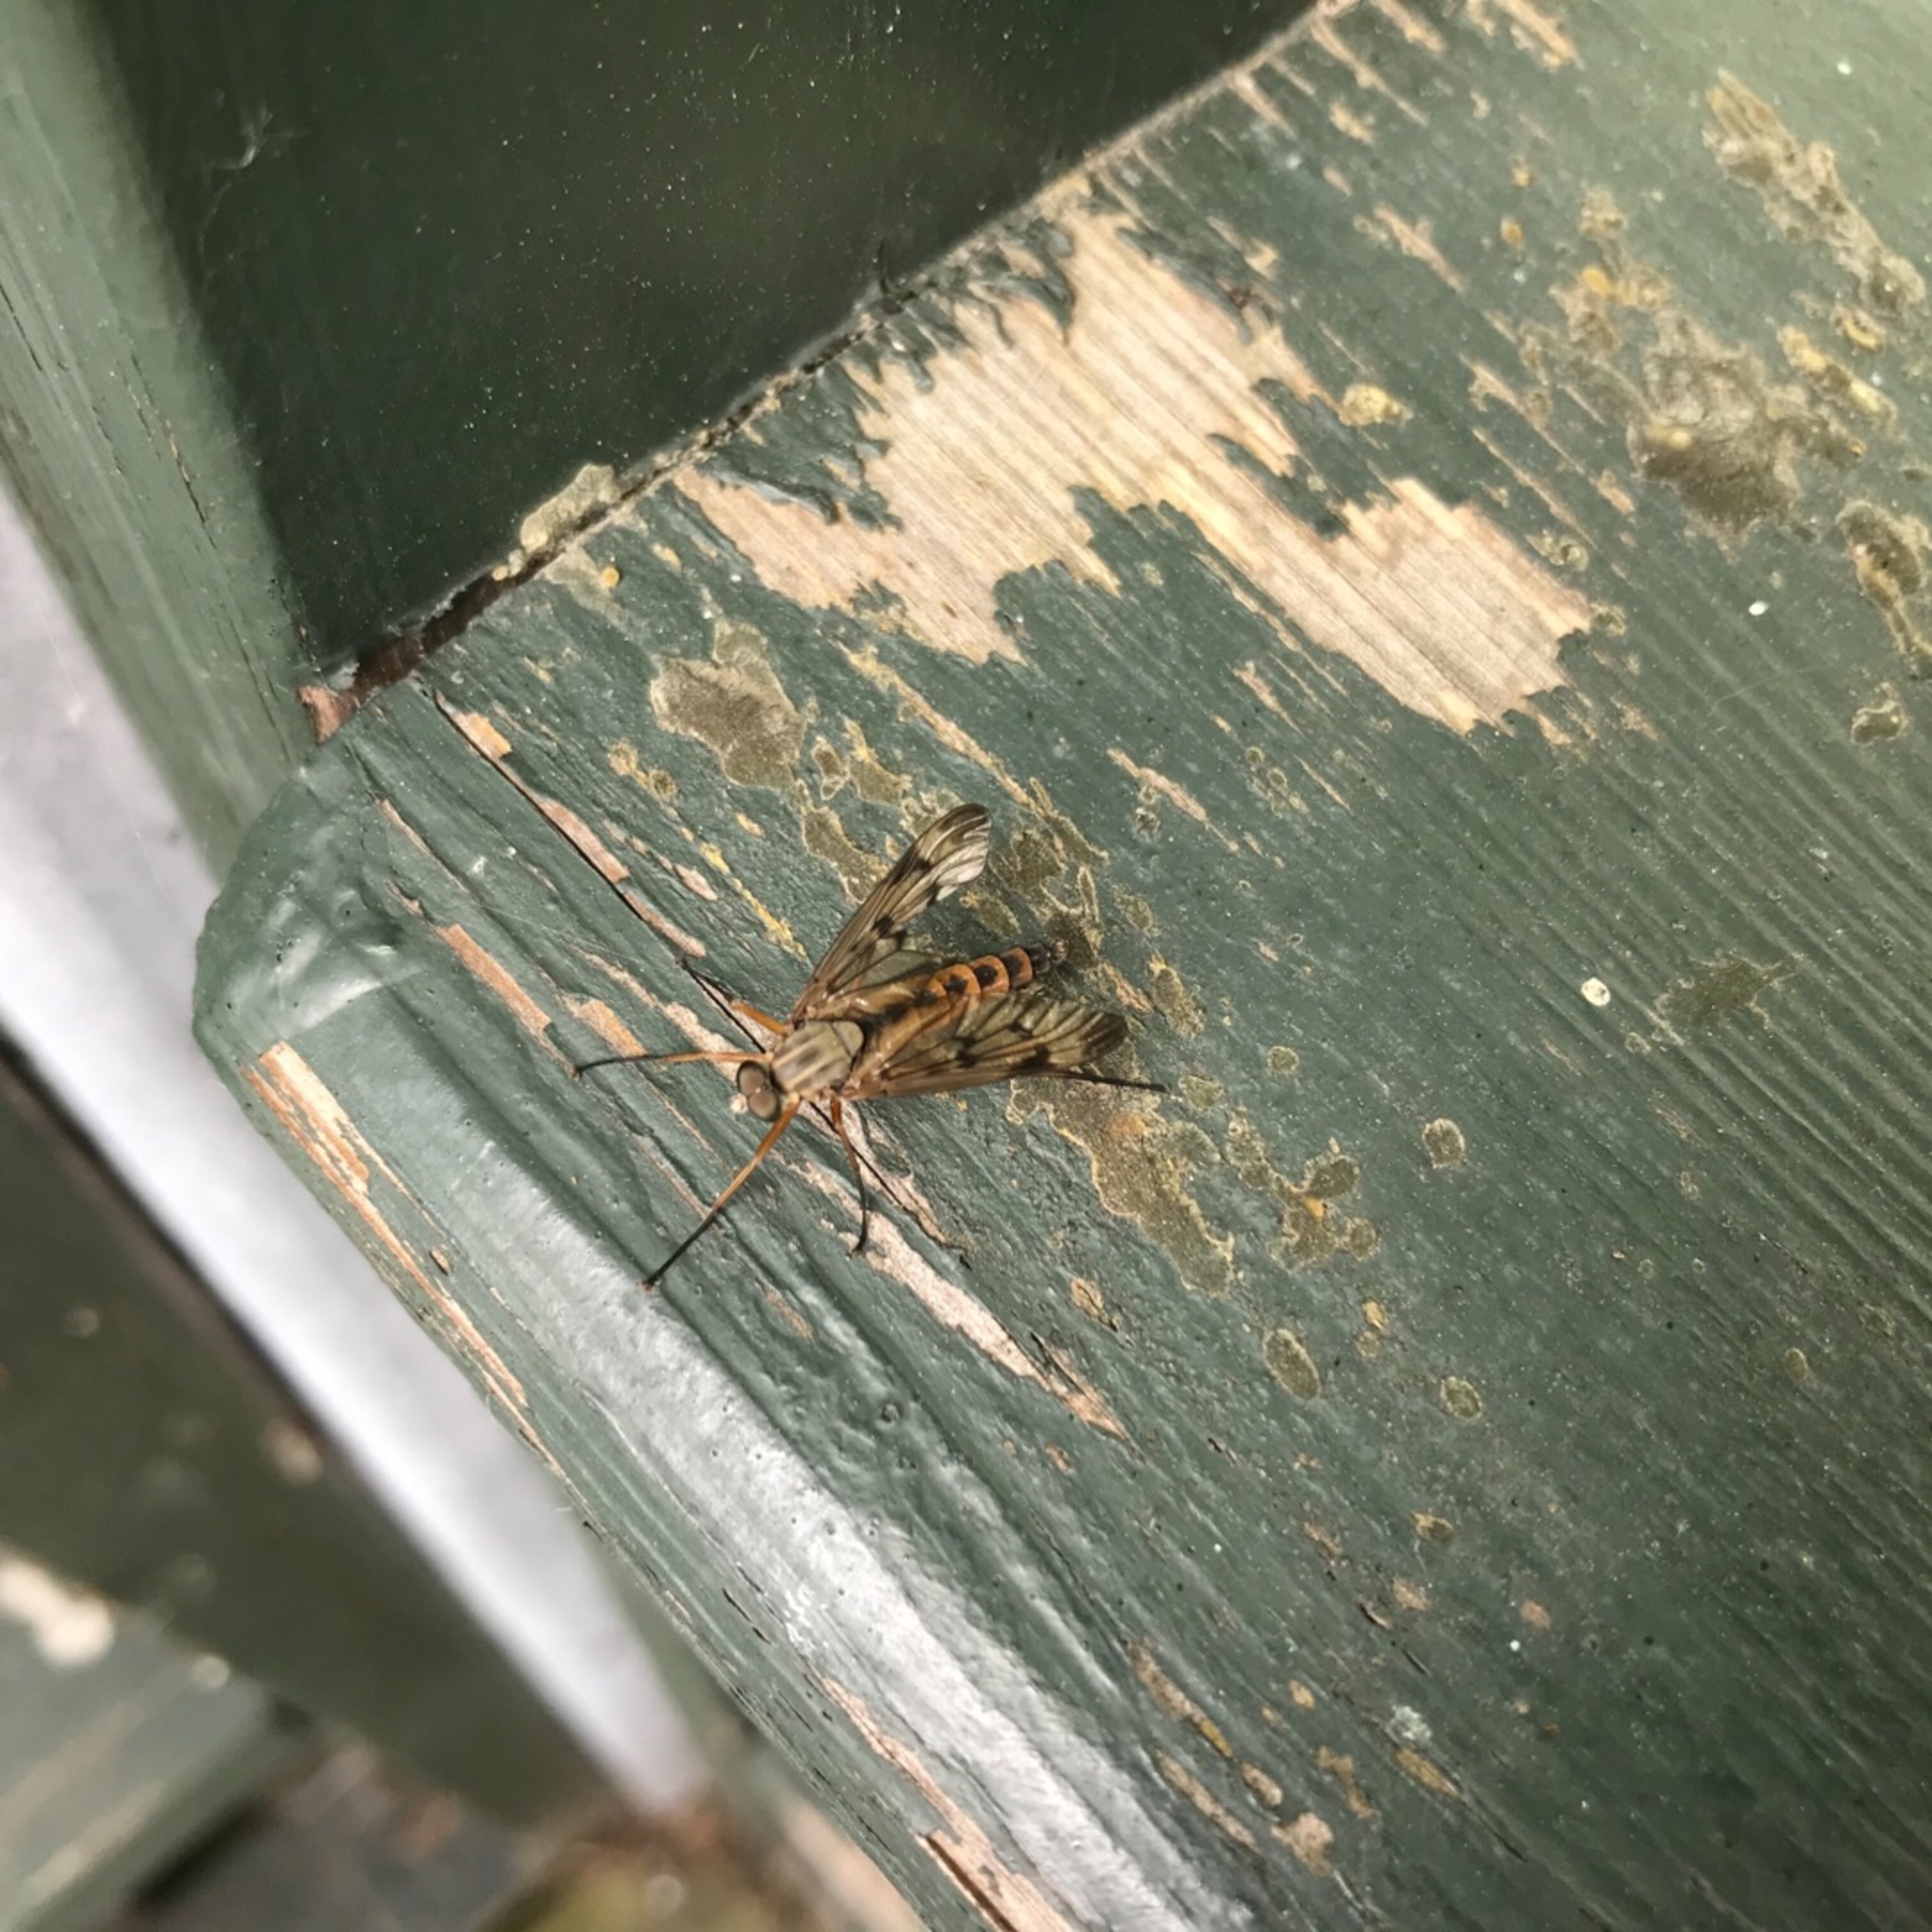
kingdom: Animalia
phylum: Arthropoda
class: Insecta
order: Diptera
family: Rhagionidae
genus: Rhagio
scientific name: Rhagio scolopacea
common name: Almindelig sneppeflue
